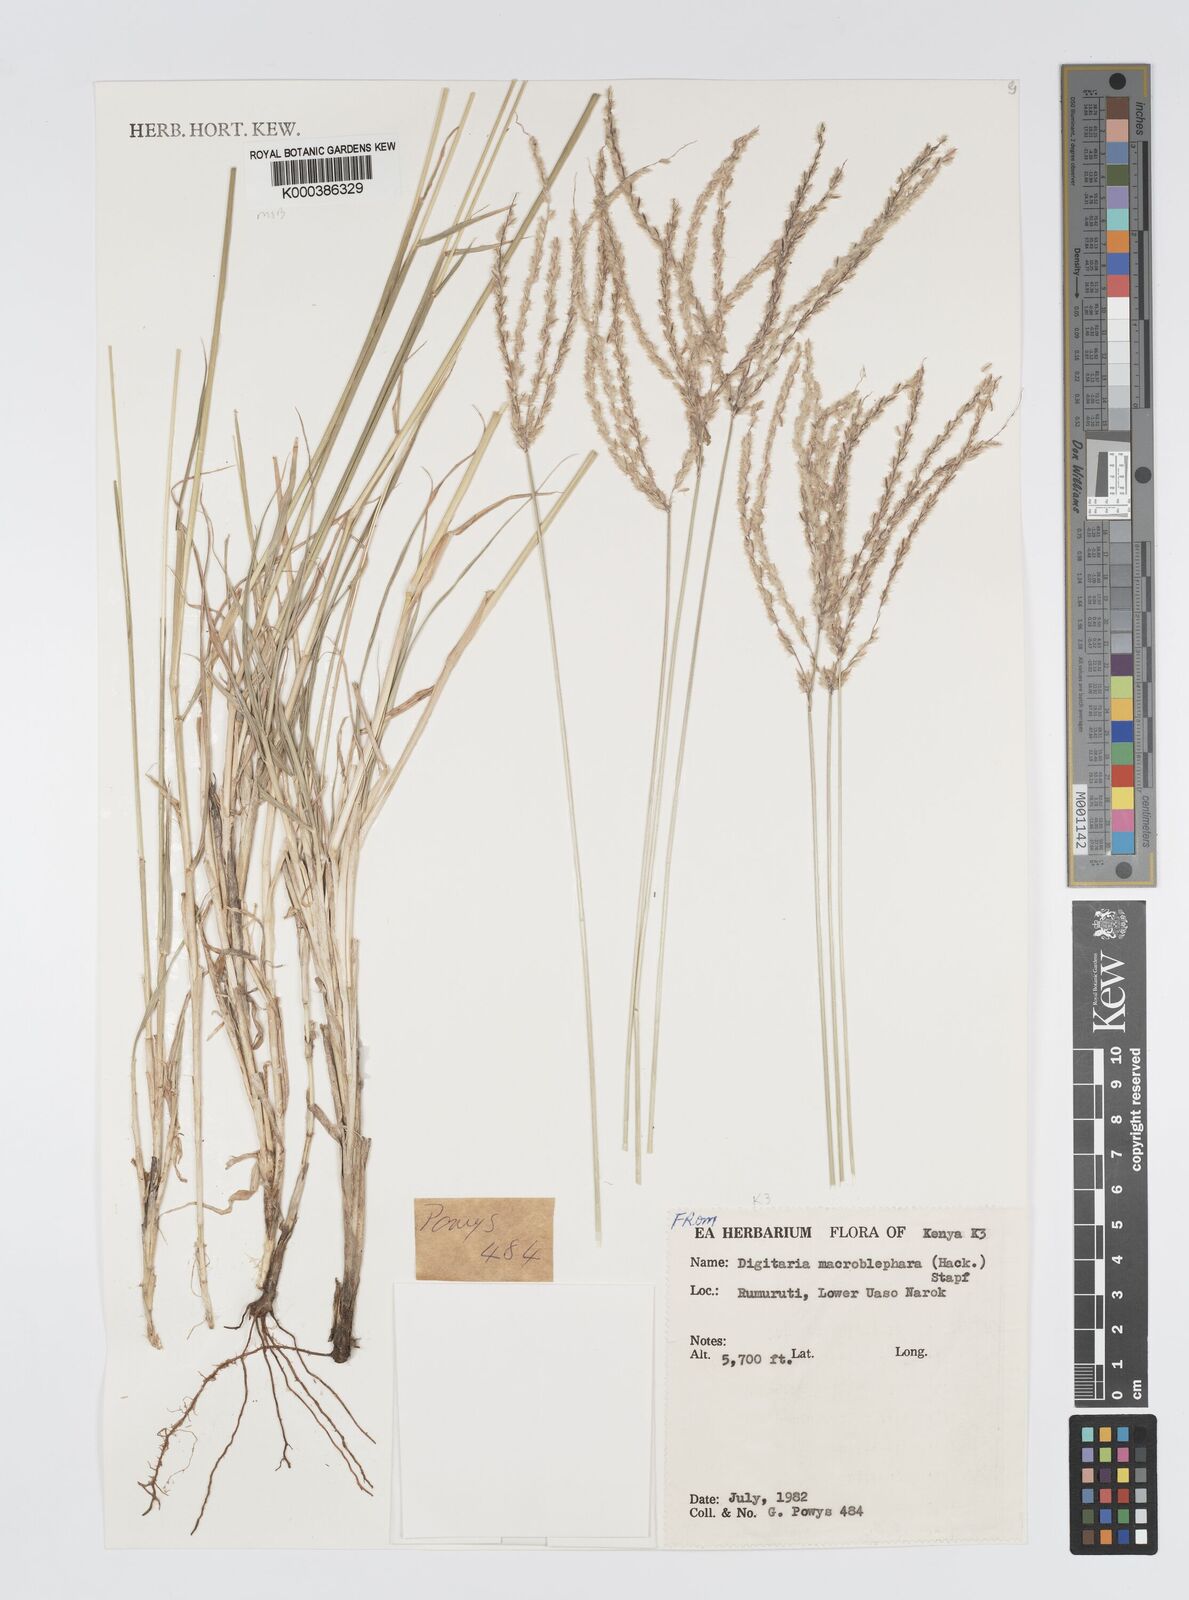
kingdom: Plantae
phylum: Tracheophyta
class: Liliopsida
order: Poales
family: Poaceae
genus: Digitaria
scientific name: Digitaria macroblephara
